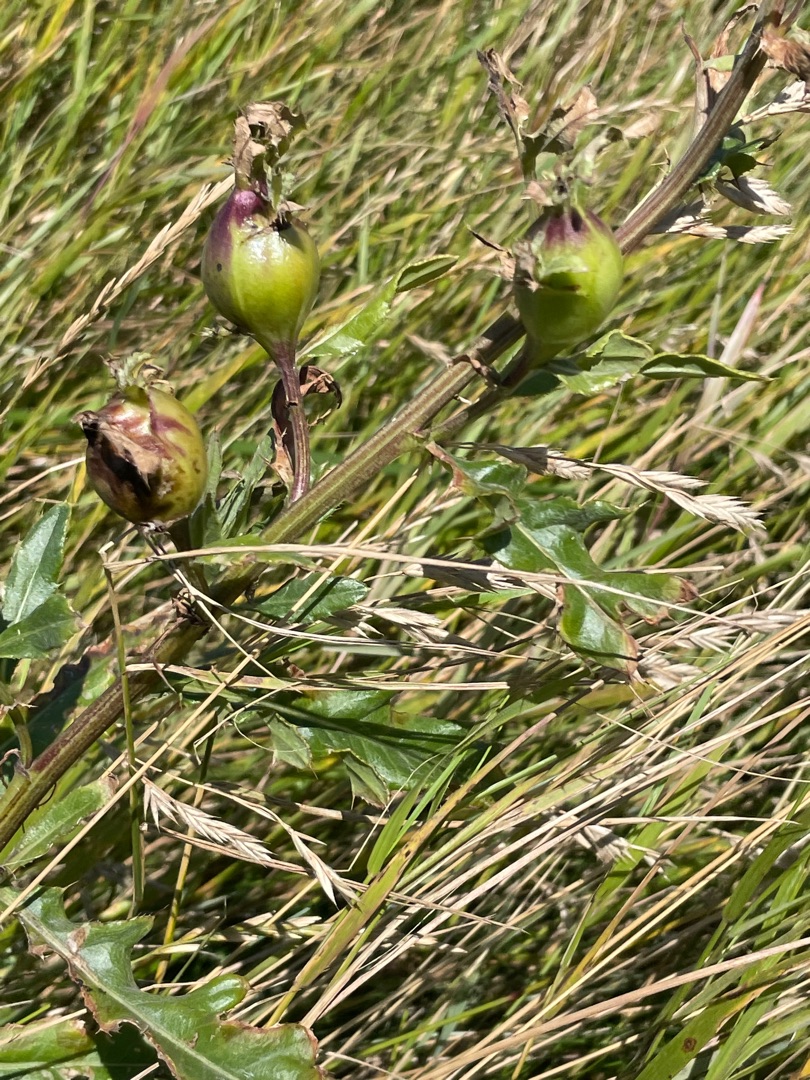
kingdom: Animalia
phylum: Arthropoda
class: Insecta
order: Diptera
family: Tephritidae
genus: Urophora
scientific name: Urophora cardui
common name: Tidselbåndflue
